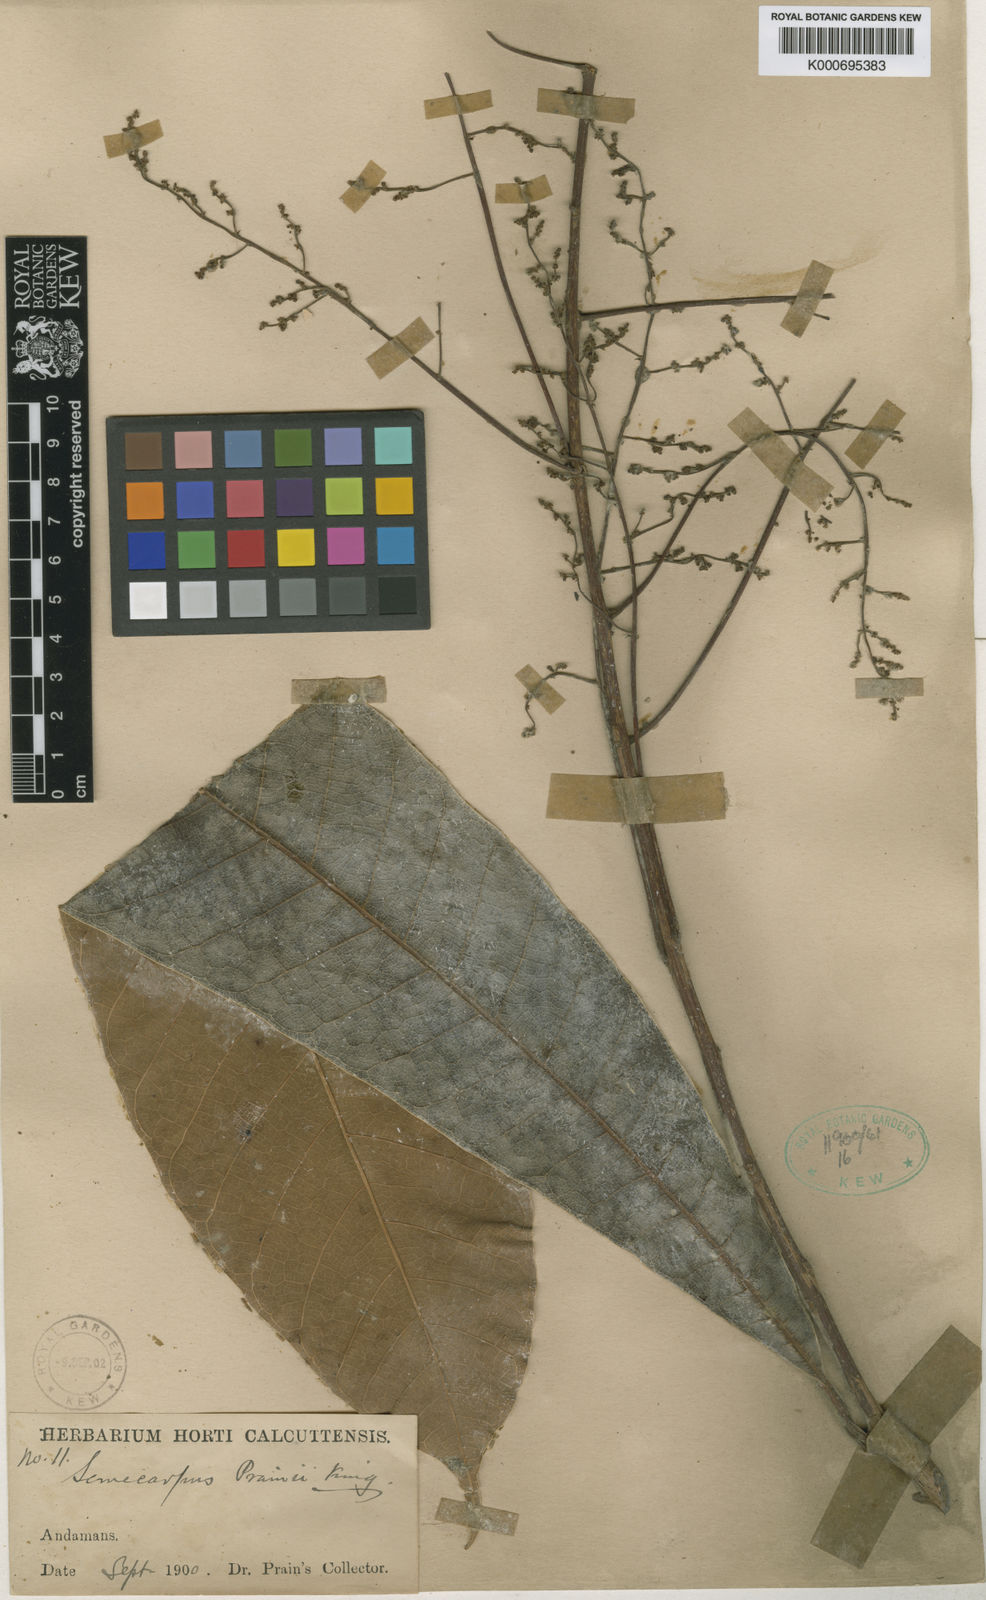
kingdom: Plantae
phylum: Tracheophyta
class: Magnoliopsida
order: Sapindales
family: Anacardiaceae
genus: Semecarpus
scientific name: Semecarpus prainii
